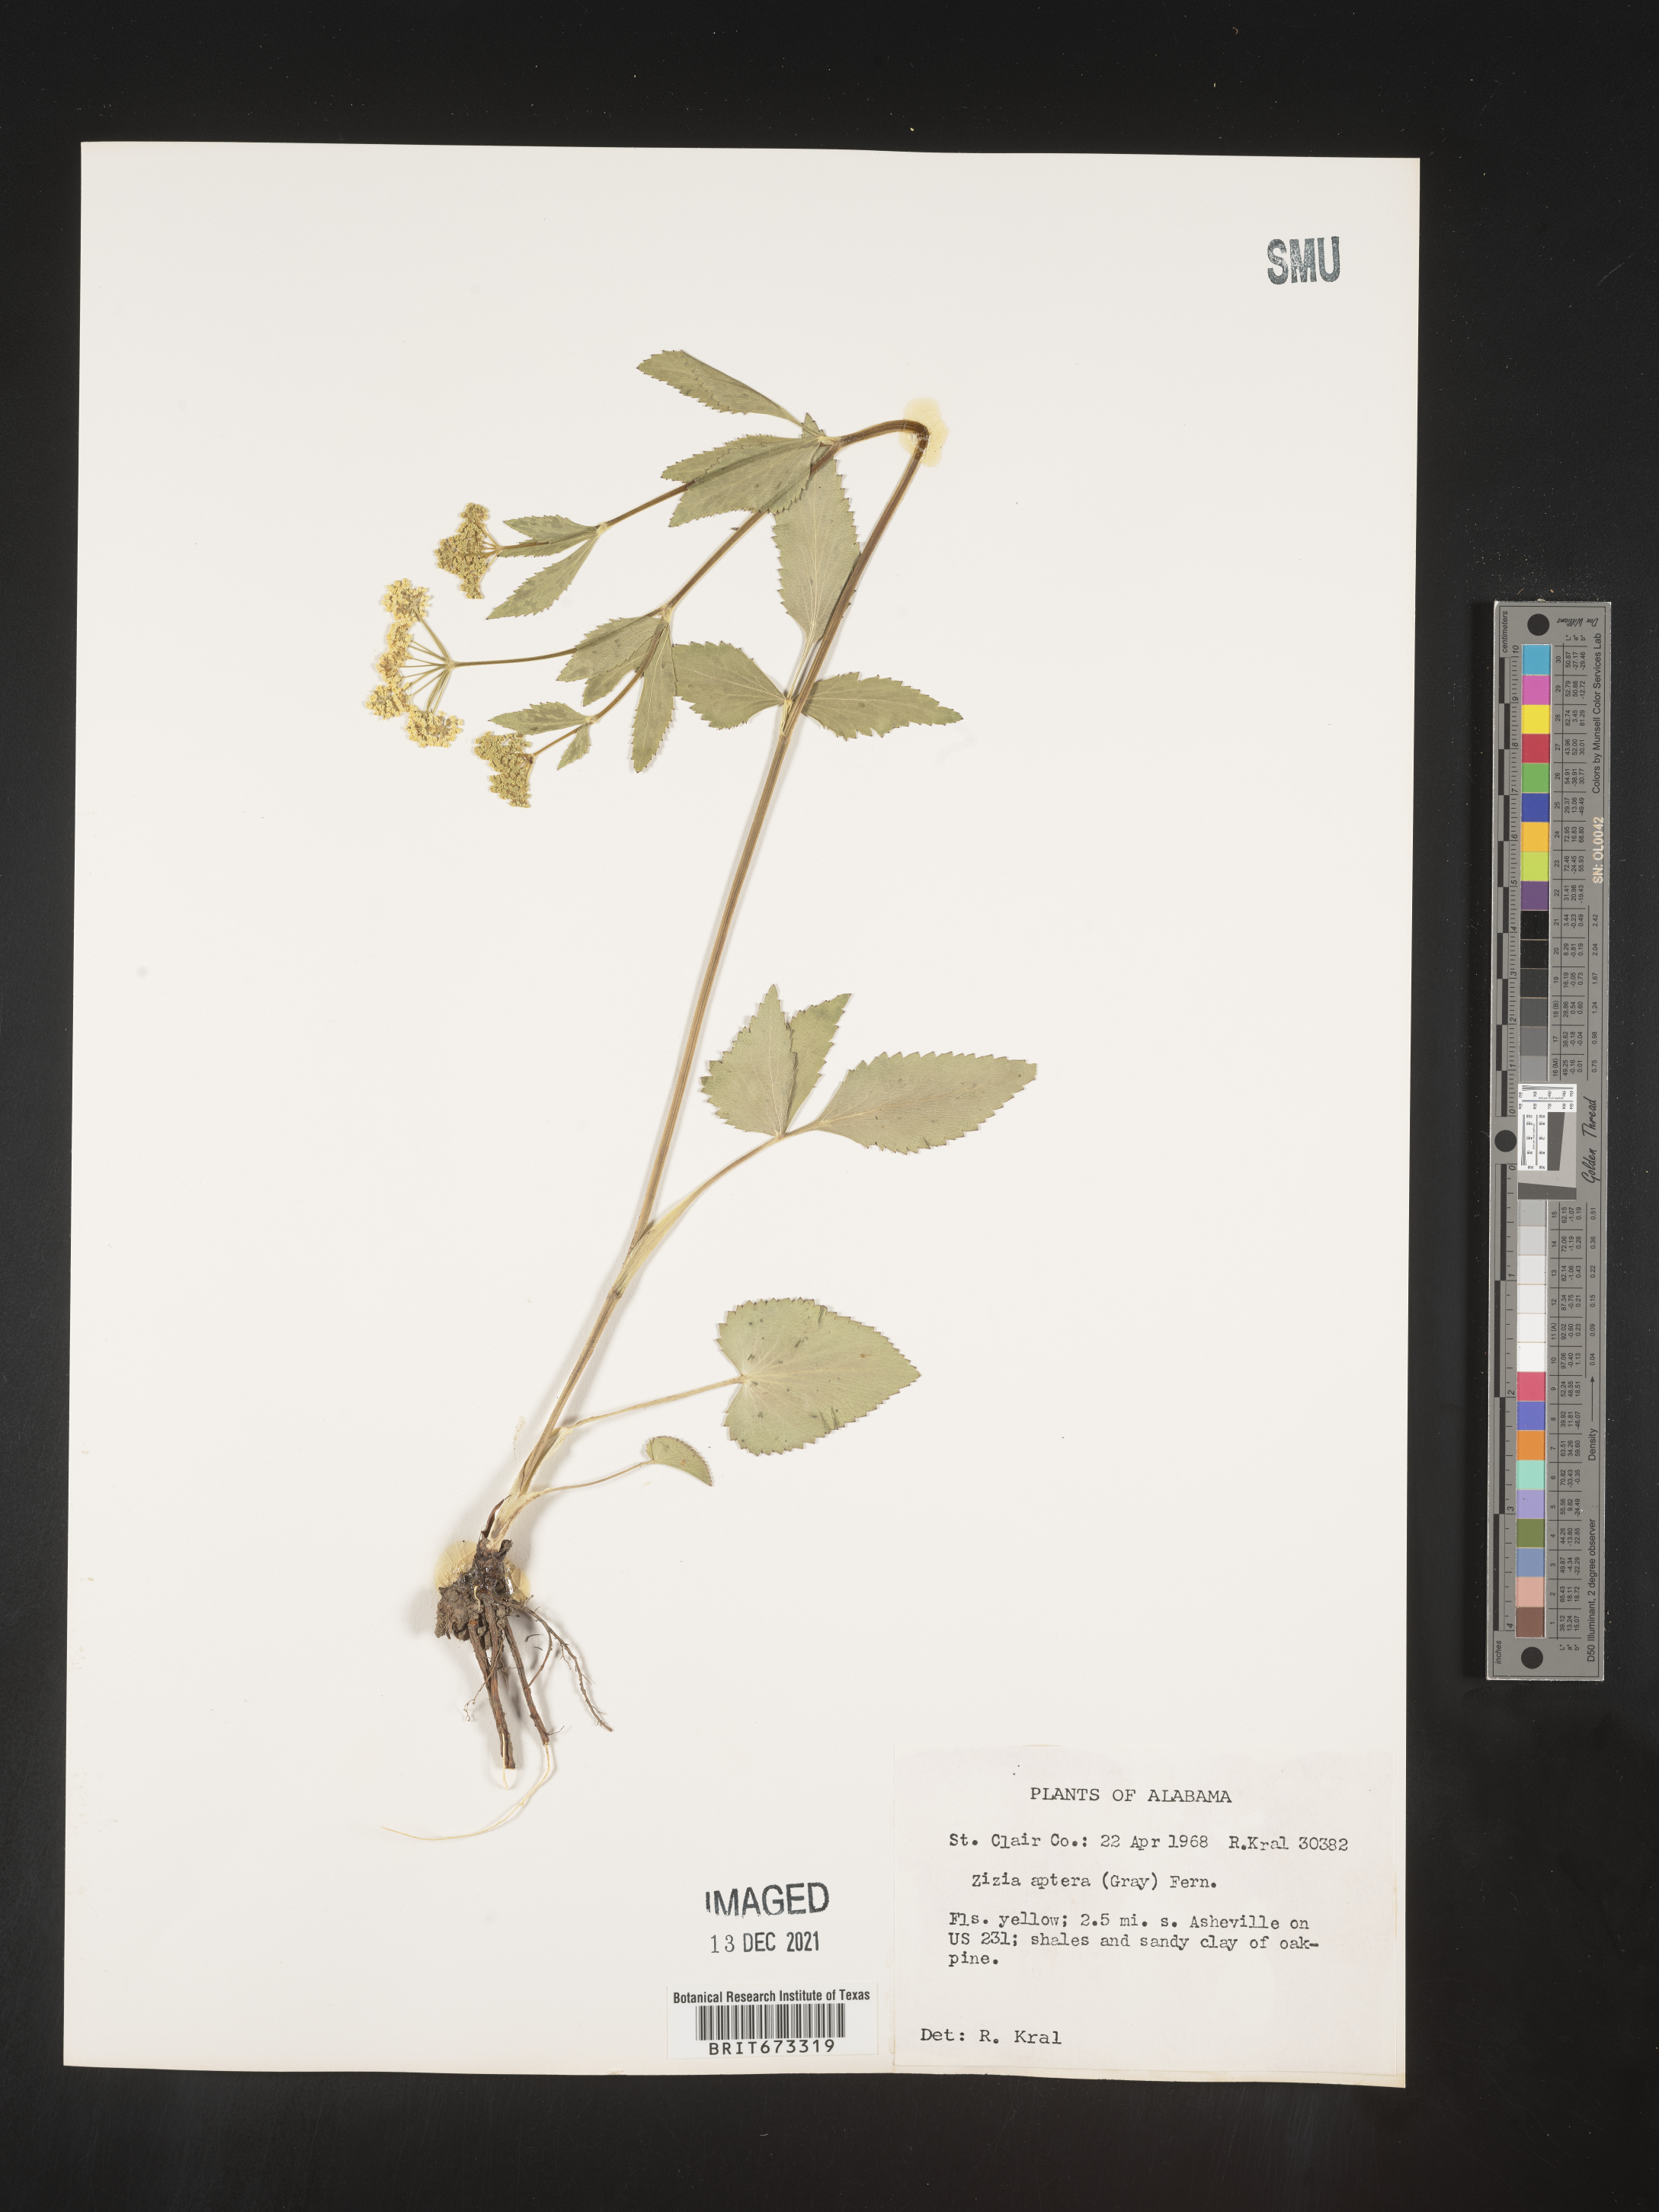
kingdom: Plantae
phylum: Tracheophyta
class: Magnoliopsida
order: Apiales
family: Apiaceae
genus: Zizia
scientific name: Zizia aptera
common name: Heart-leaved alexanders
